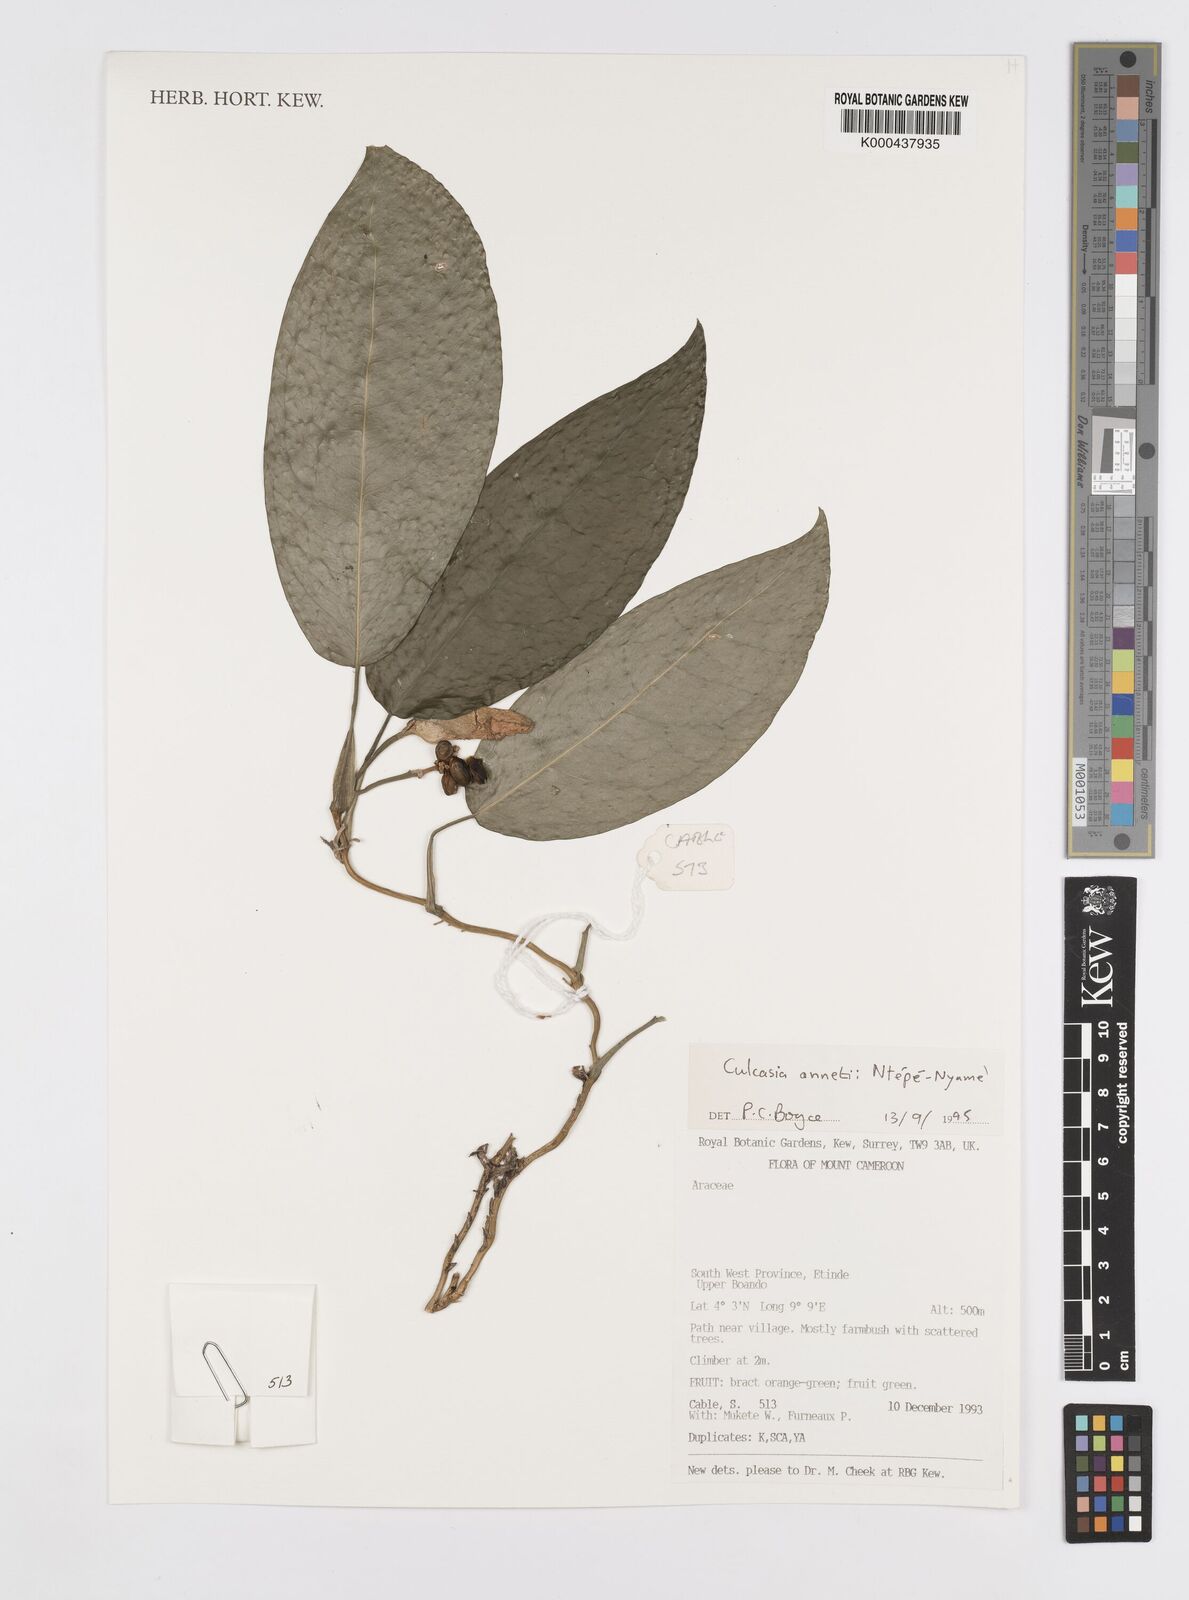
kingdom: Plantae
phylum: Tracheophyta
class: Liliopsida
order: Alismatales
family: Araceae
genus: Culcasia
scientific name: Culcasia annetii
